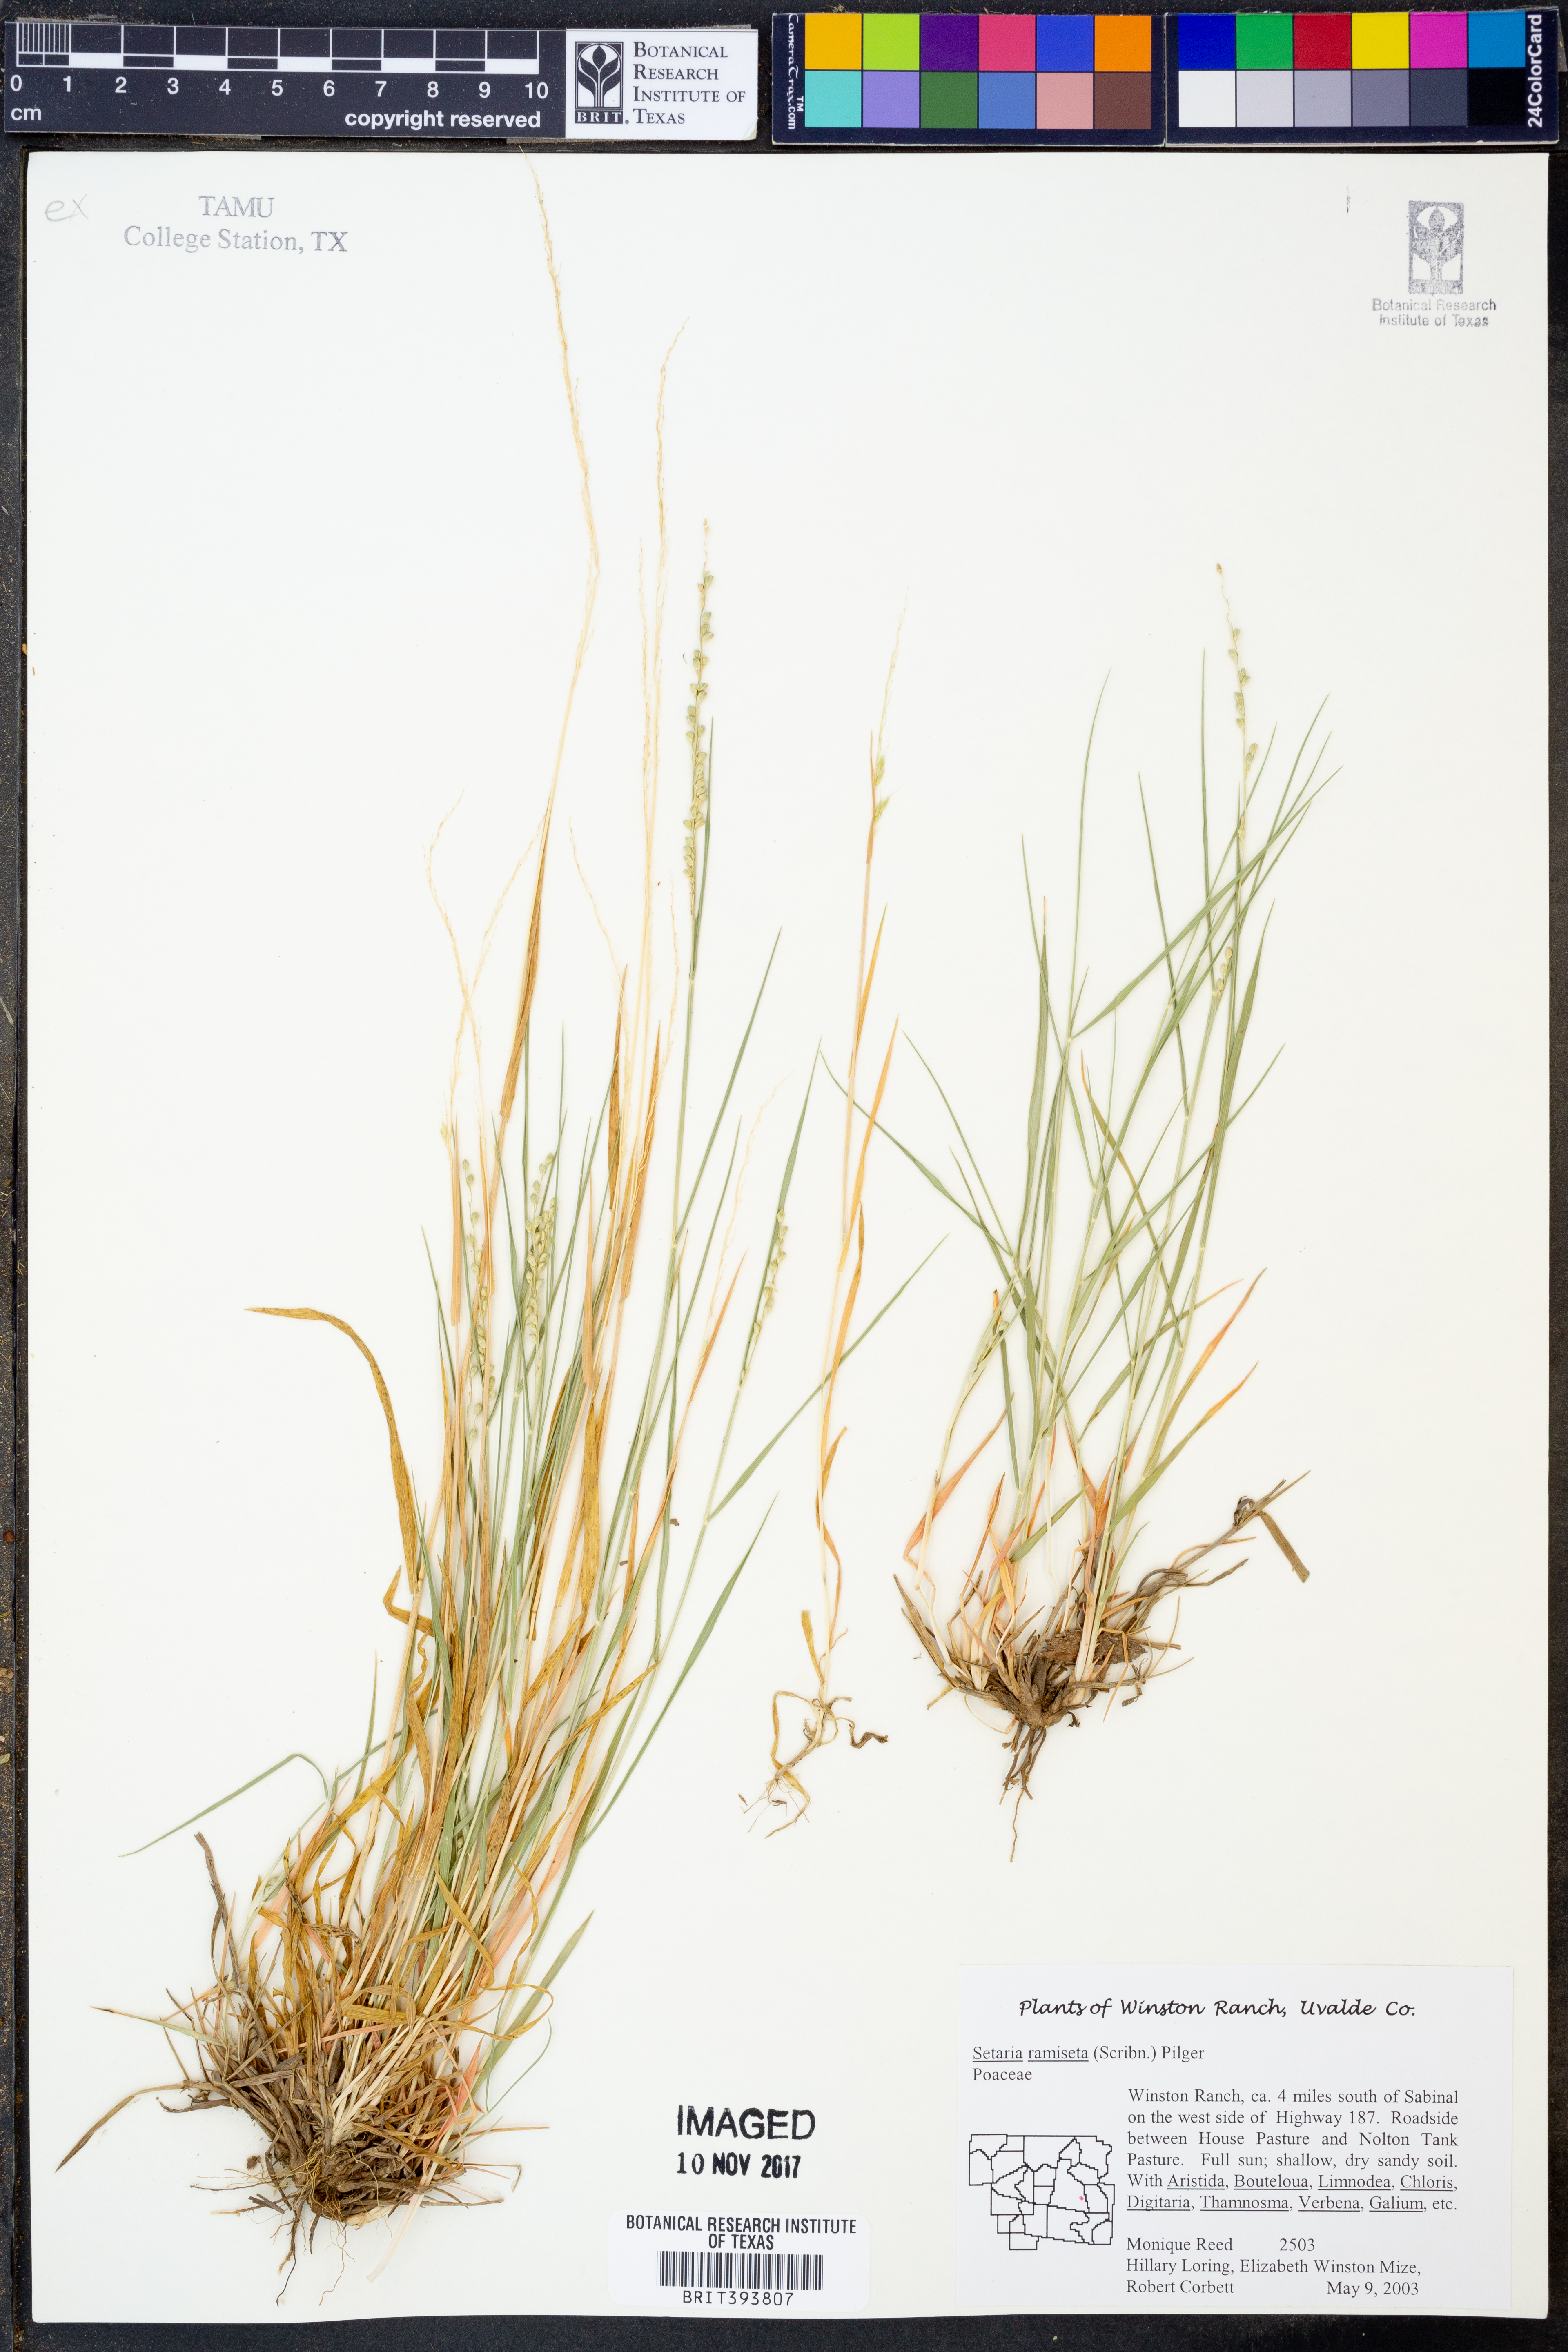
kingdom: Plantae
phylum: Tracheophyta
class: Liliopsida
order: Poales
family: Poaceae
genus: Setaria
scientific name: Setaria reverchonii
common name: Reverchon's bristle grass
